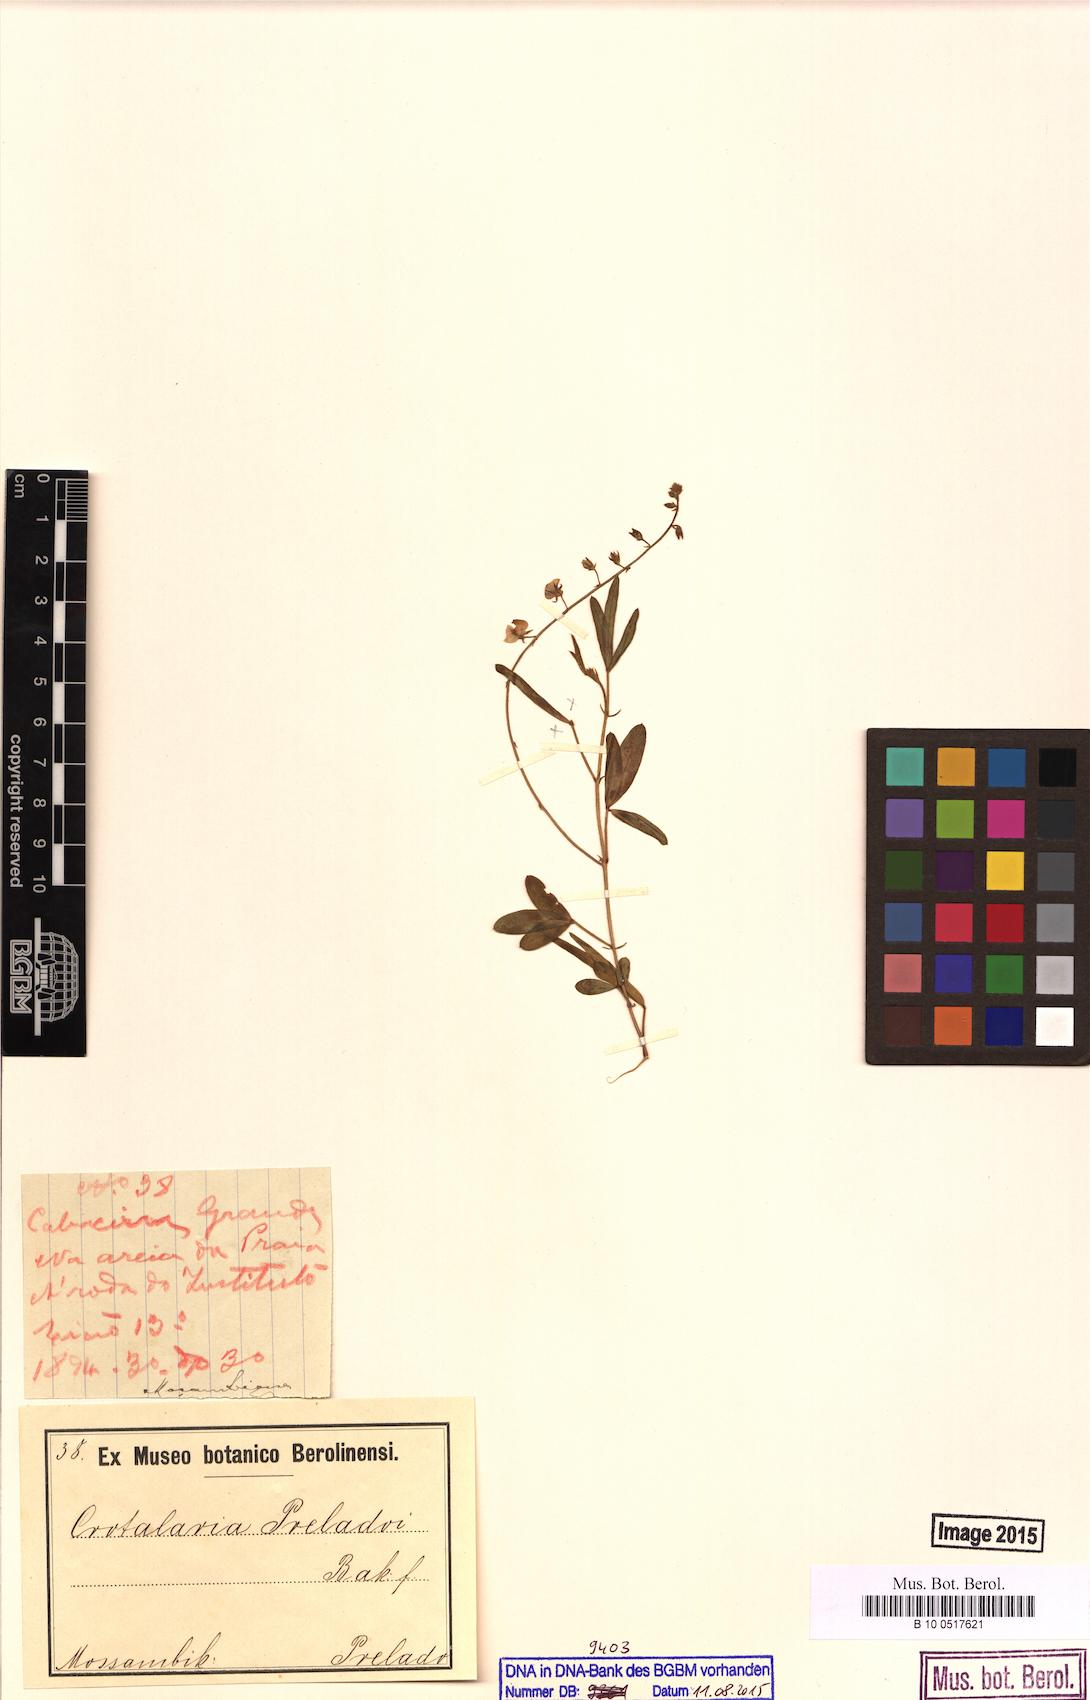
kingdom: Plantae
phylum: Tracheophyta
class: Magnoliopsida
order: Fabales
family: Fabaceae
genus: Crotalaria
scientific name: Crotalaria preladoi
